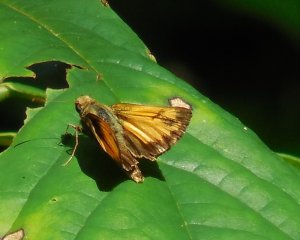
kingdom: Animalia
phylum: Arthropoda
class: Insecta
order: Lepidoptera
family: Hesperiidae
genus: Lon
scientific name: Lon zabulon
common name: Zabulon Skipper
